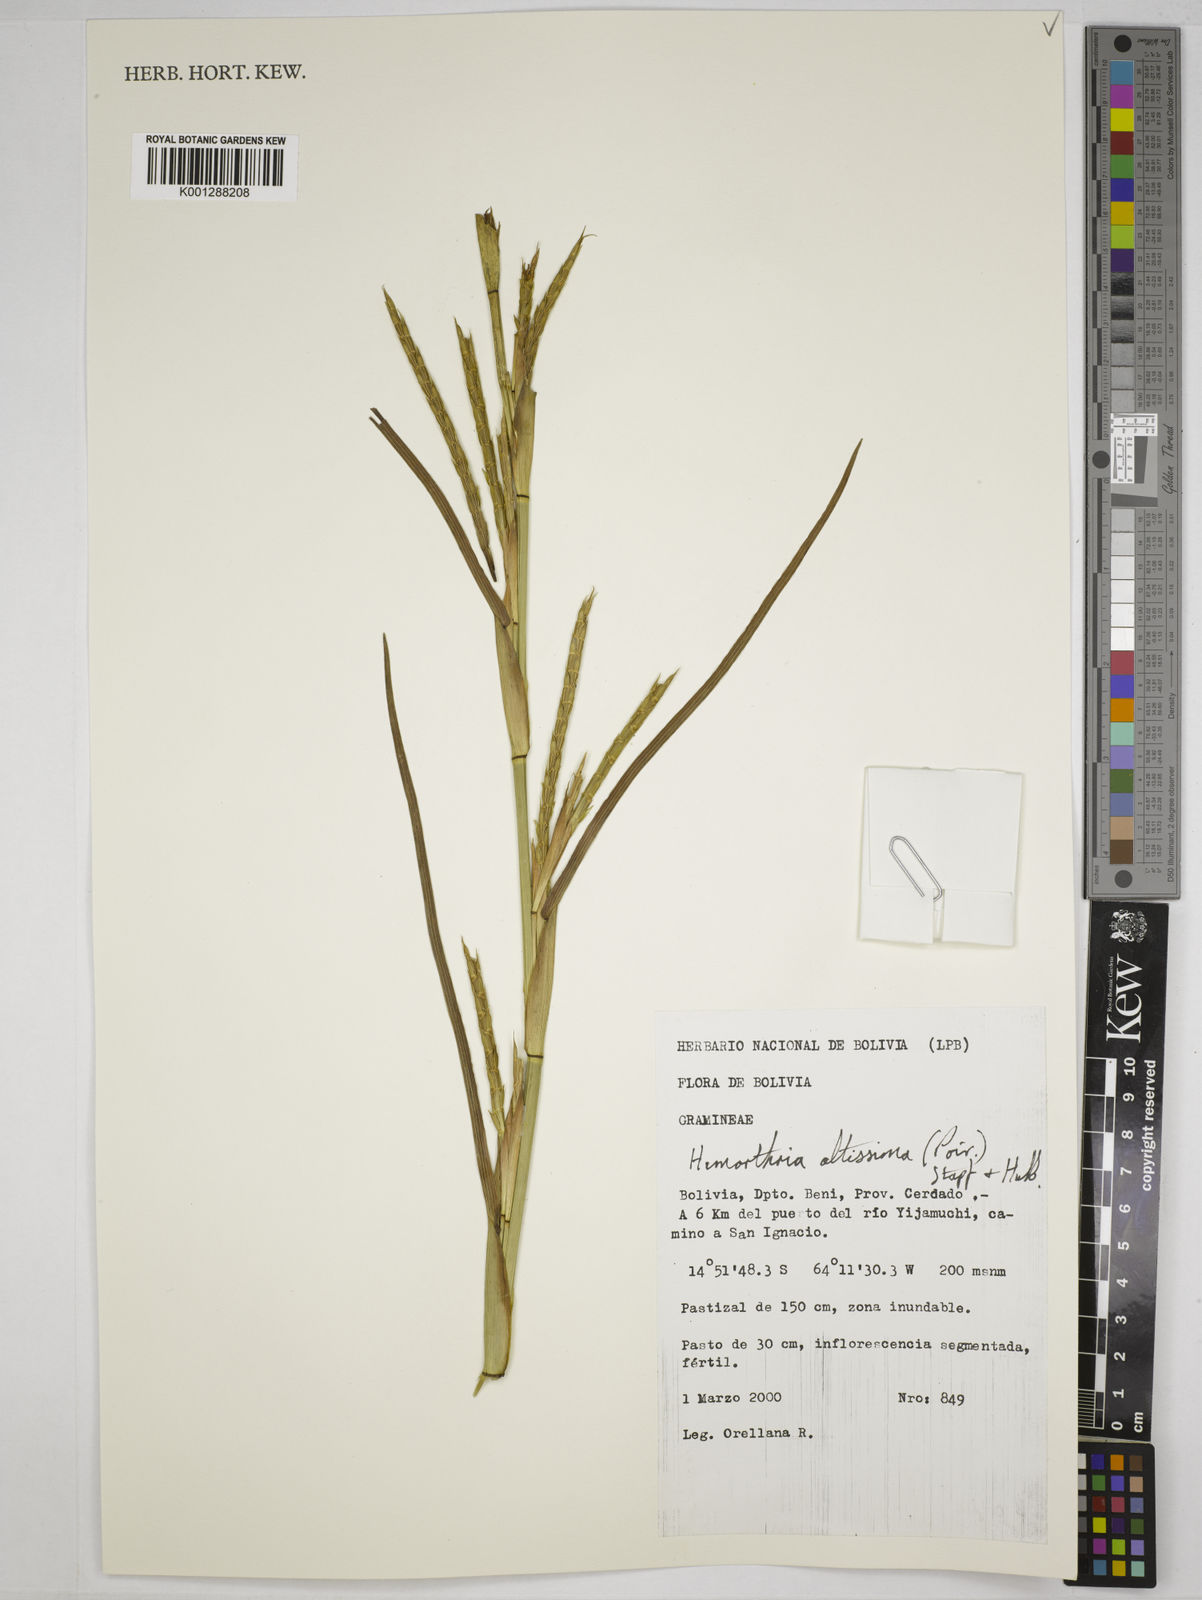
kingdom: Plantae
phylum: Tracheophyta
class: Liliopsida
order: Poales
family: Poaceae
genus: Hemarthria
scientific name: Hemarthria altissima
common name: African jointgrass
